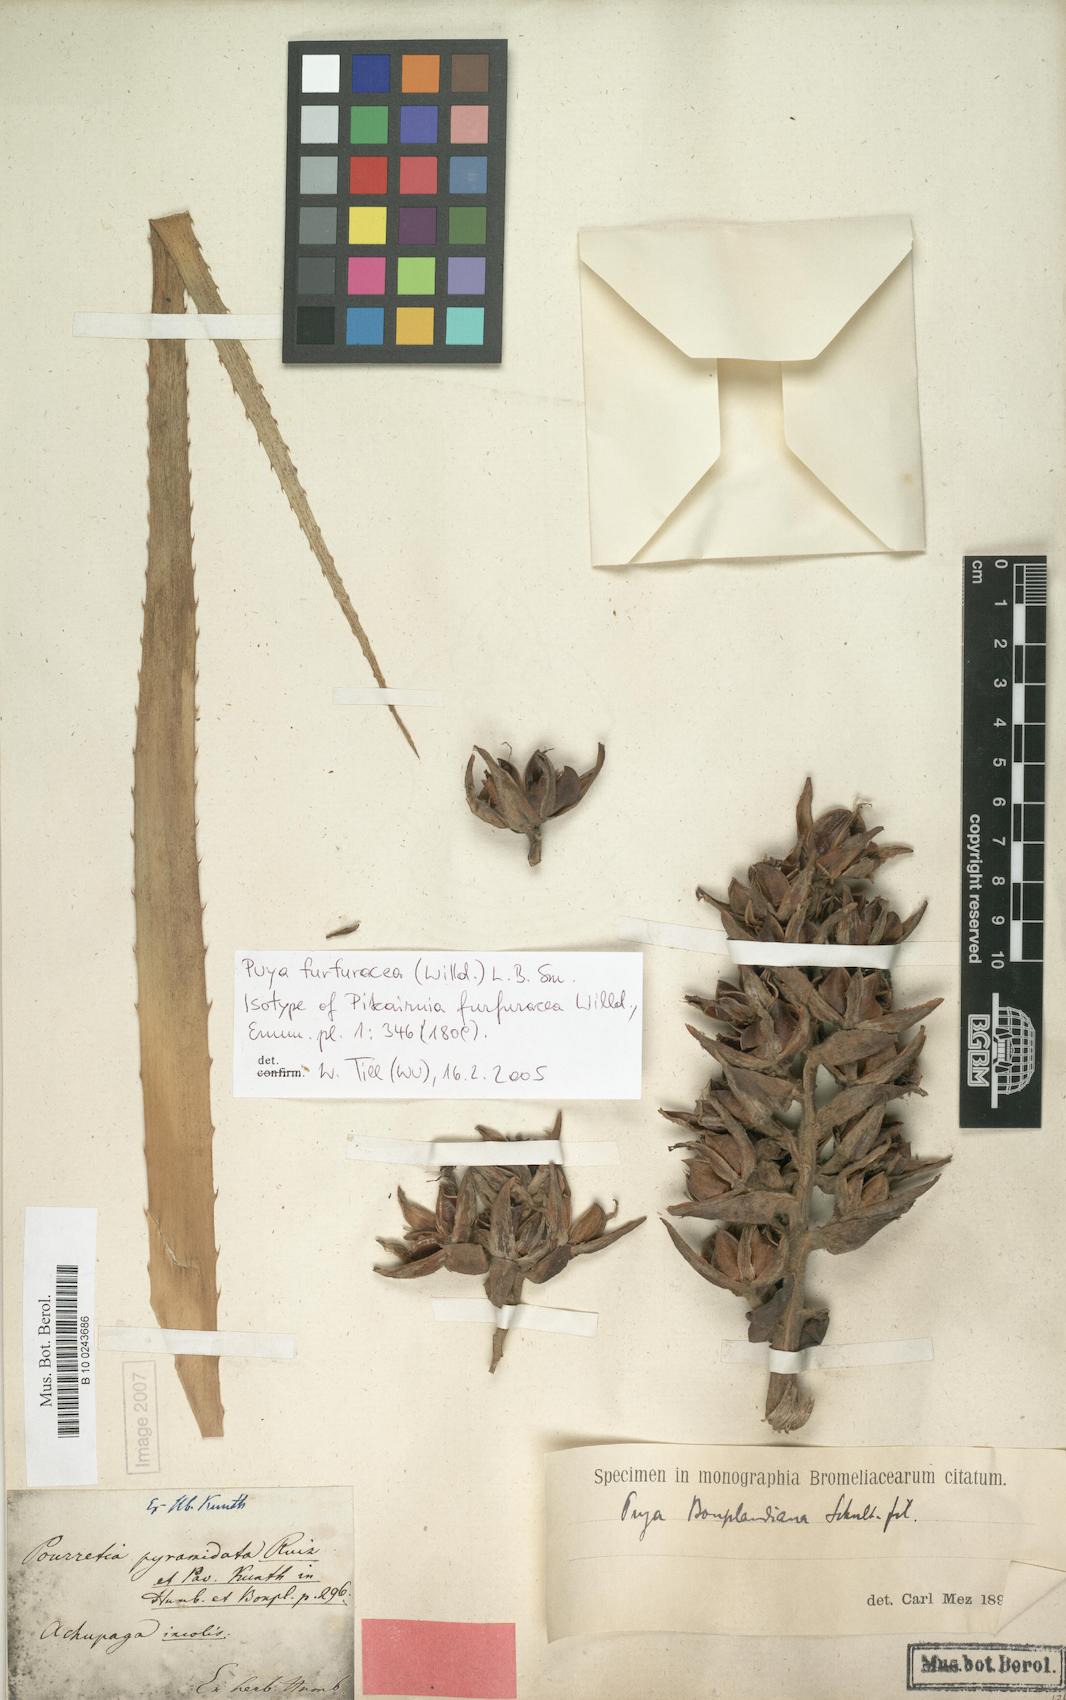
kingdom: Plantae
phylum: Tracheophyta
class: Liliopsida
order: Poales
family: Bromeliaceae
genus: Puya
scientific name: Puya furfuracea
